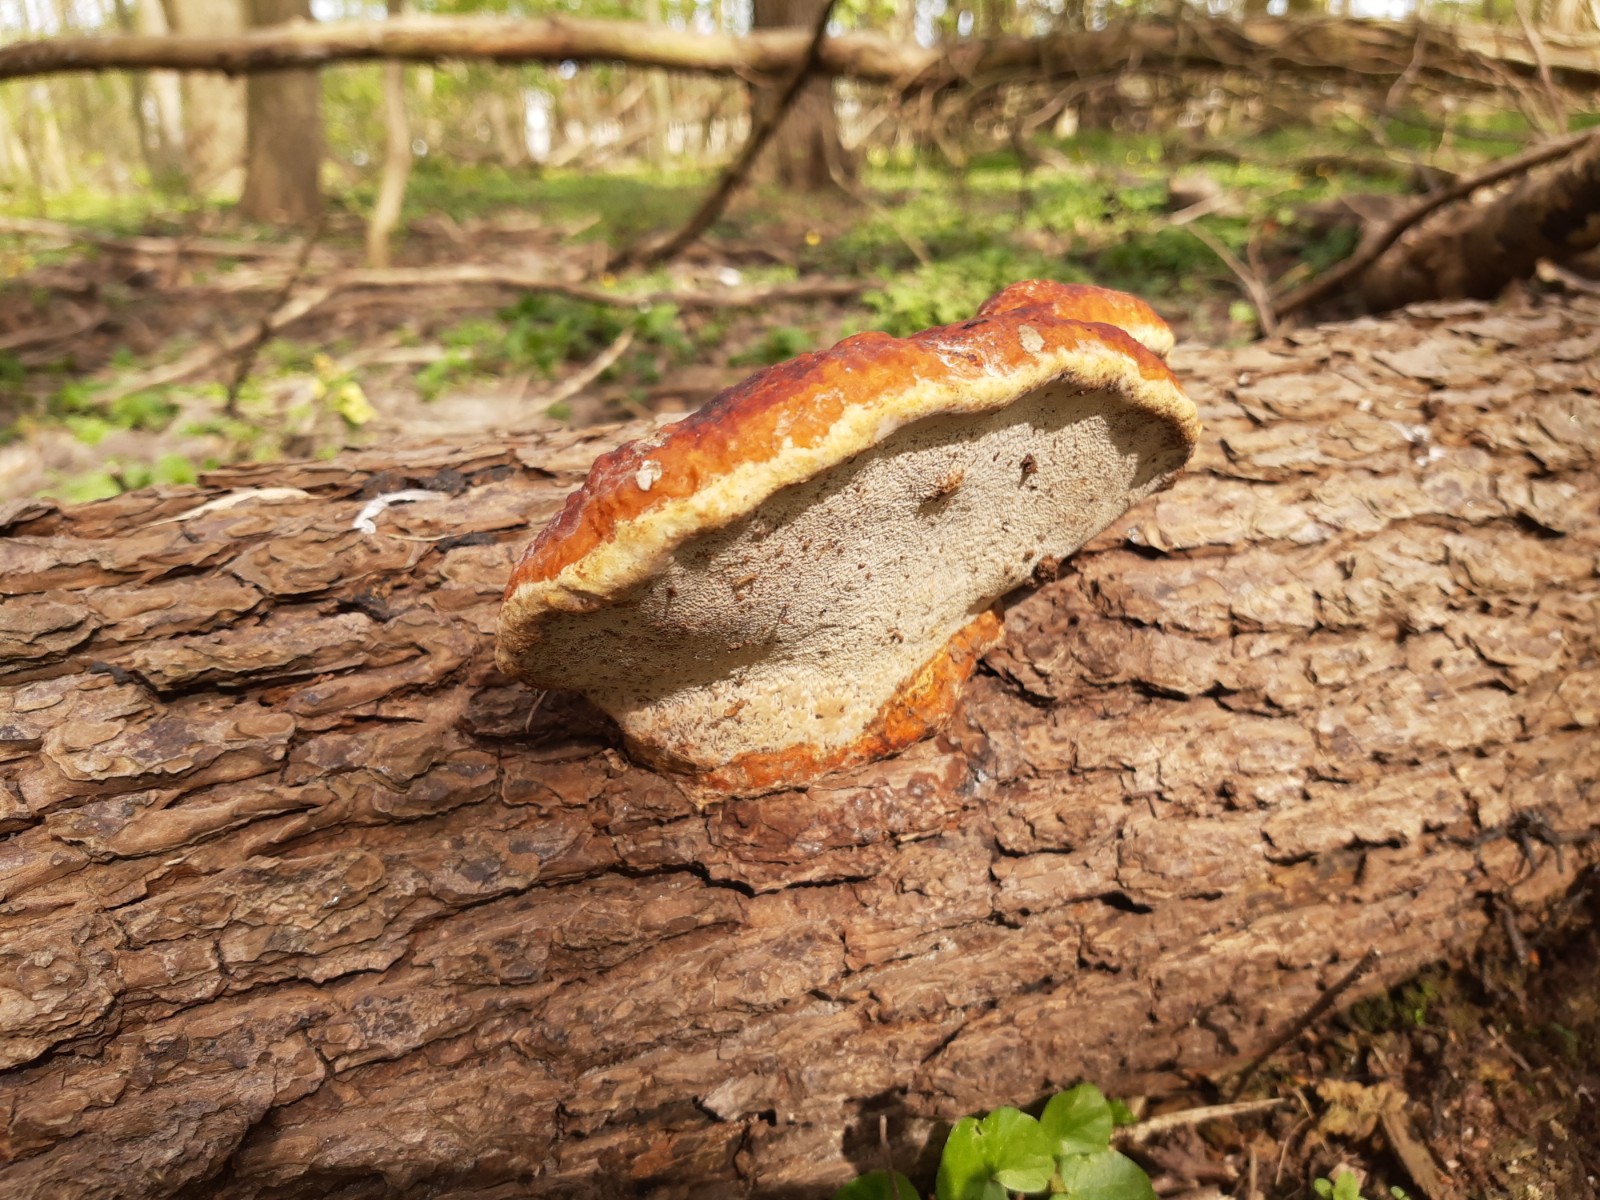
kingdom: Fungi
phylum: Basidiomycota
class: Agaricomycetes
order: Polyporales
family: Fomitopsidaceae
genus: Fomitopsis
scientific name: Fomitopsis pinicola
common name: randbæltet hovporesvamp
